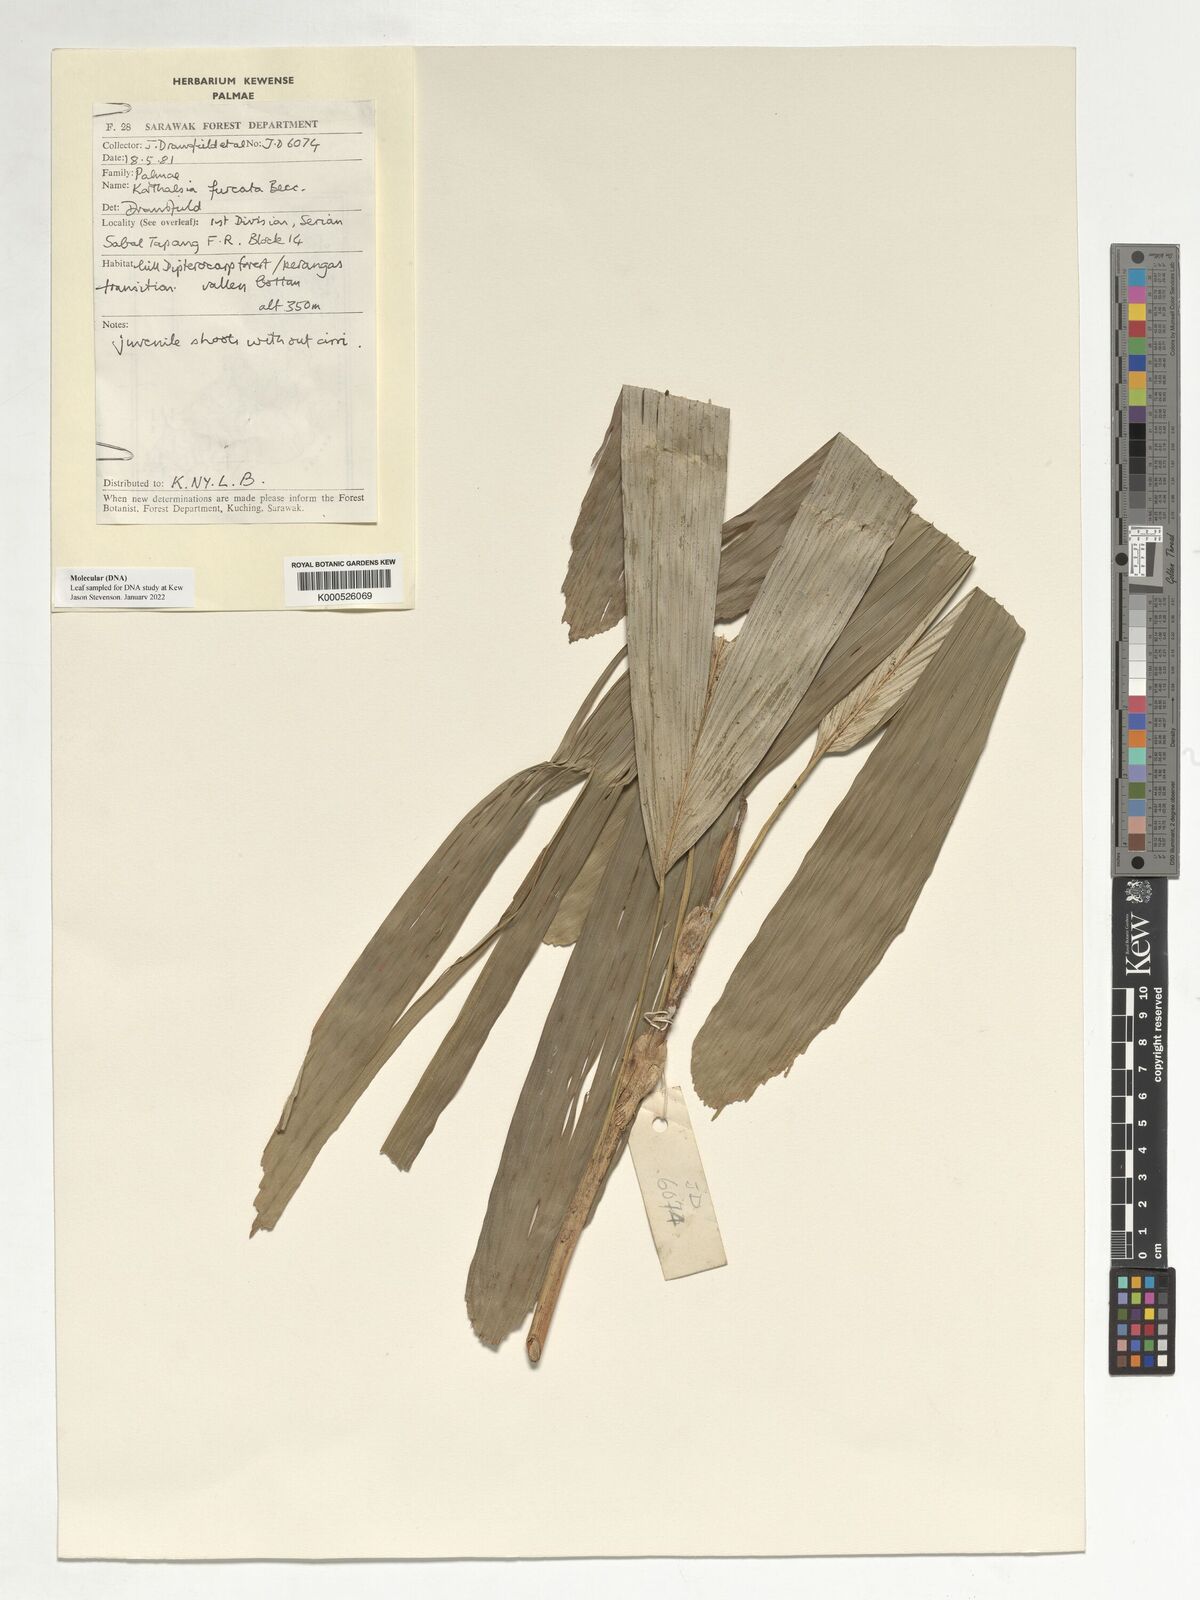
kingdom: Plantae
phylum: Tracheophyta
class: Liliopsida
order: Arecales
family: Arecaceae
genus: Korthalsia
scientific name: Korthalsia furcata
